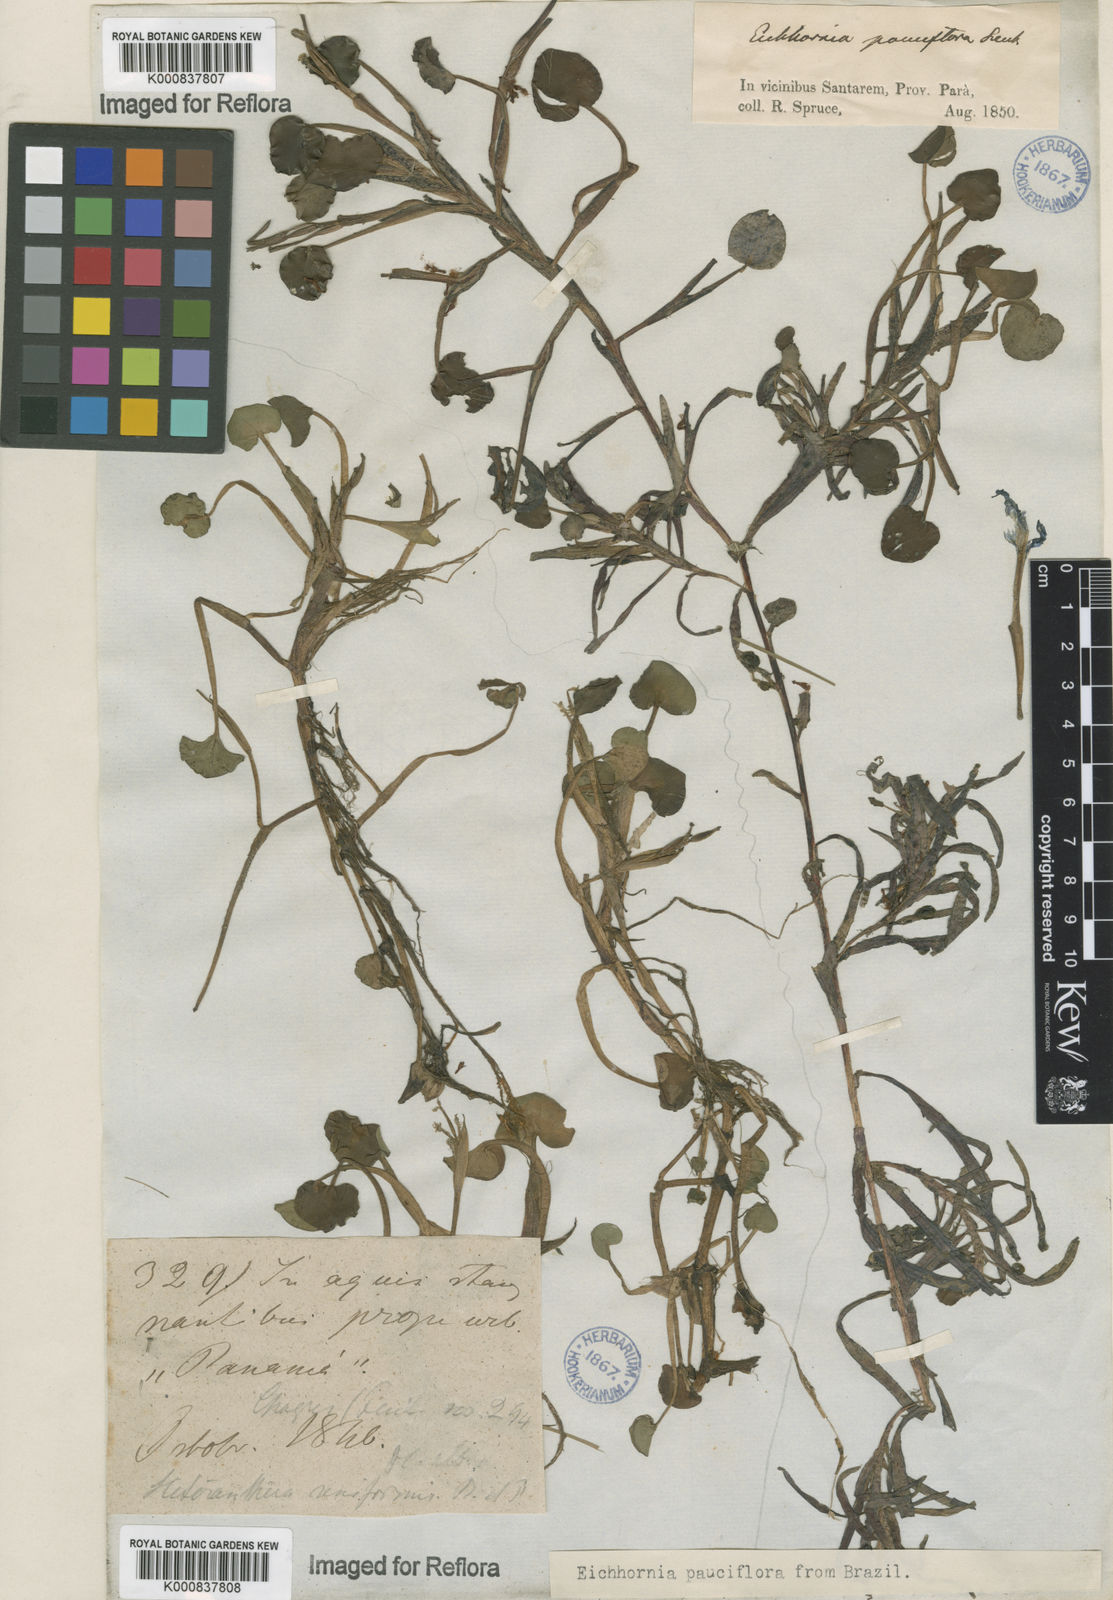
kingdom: Plantae
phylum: Tracheophyta
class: Liliopsida
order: Commelinales
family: Pontederiaceae
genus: Pontederia
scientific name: Pontederia diversifolia
